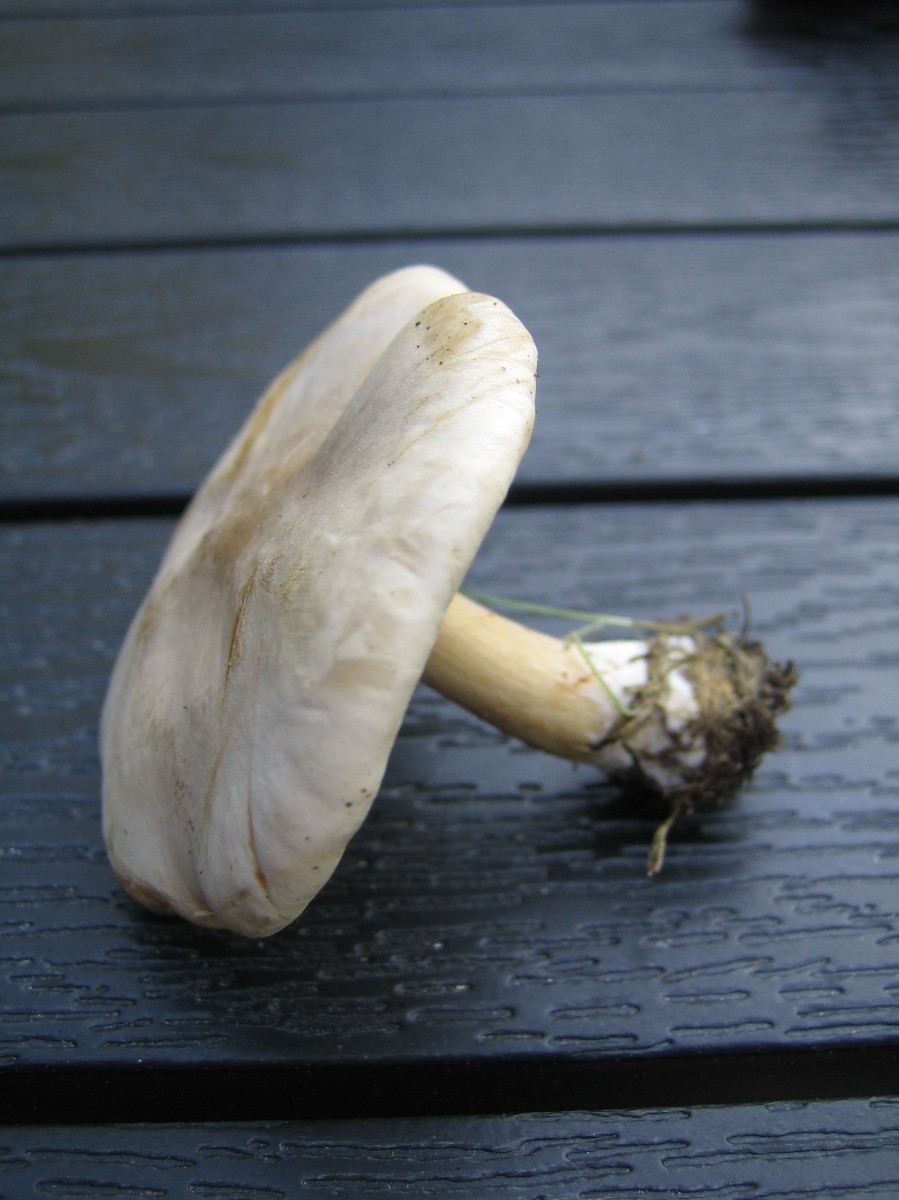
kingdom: Fungi
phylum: Basidiomycota
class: Agaricomycetes
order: Agaricales
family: Tricholomataceae
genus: Melanoleuca
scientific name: Melanoleuca
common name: munkehat
